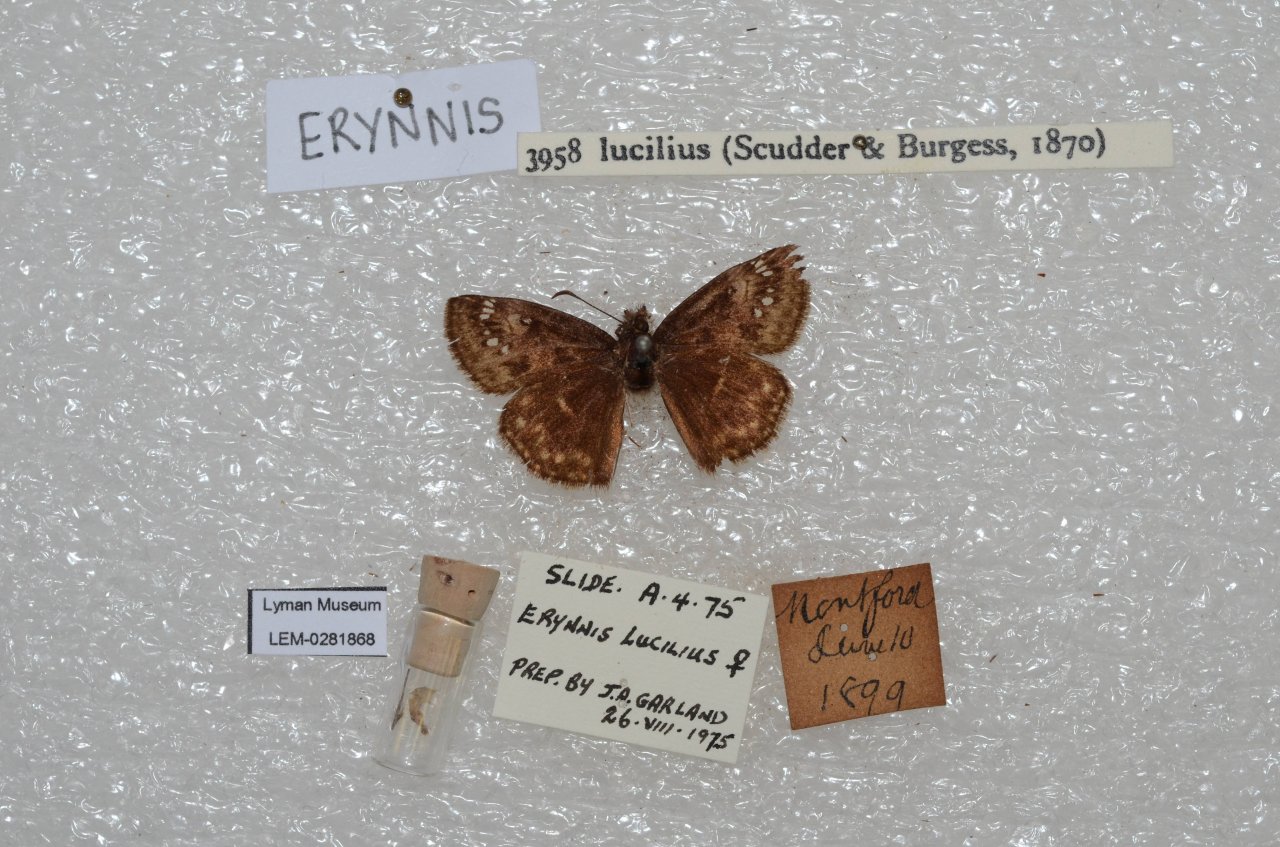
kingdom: Animalia
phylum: Arthropoda
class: Insecta
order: Lepidoptera
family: Hesperiidae
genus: Gesta
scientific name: Gesta
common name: Columbine Duskywing
